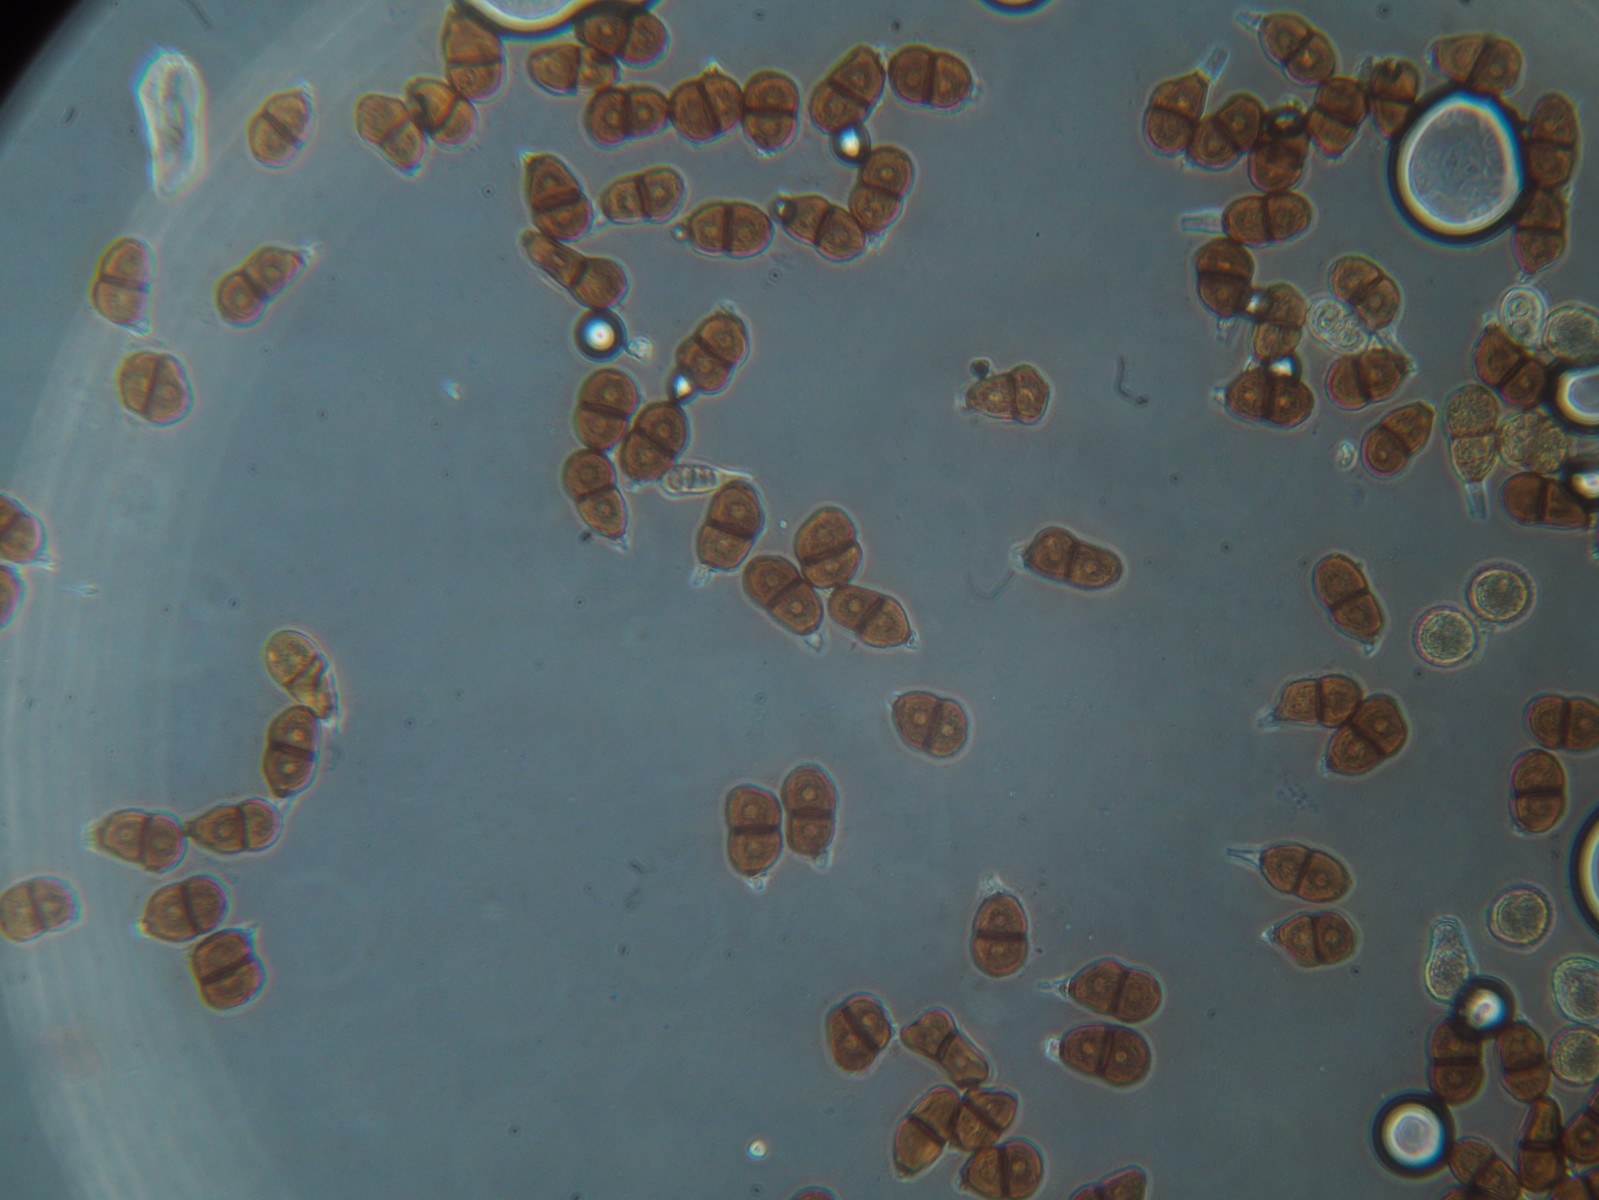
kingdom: Fungi
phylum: Basidiomycota
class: Pucciniomycetes
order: Pucciniales
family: Pucciniaceae
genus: Puccinia
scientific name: Puccinia chaerophylli
